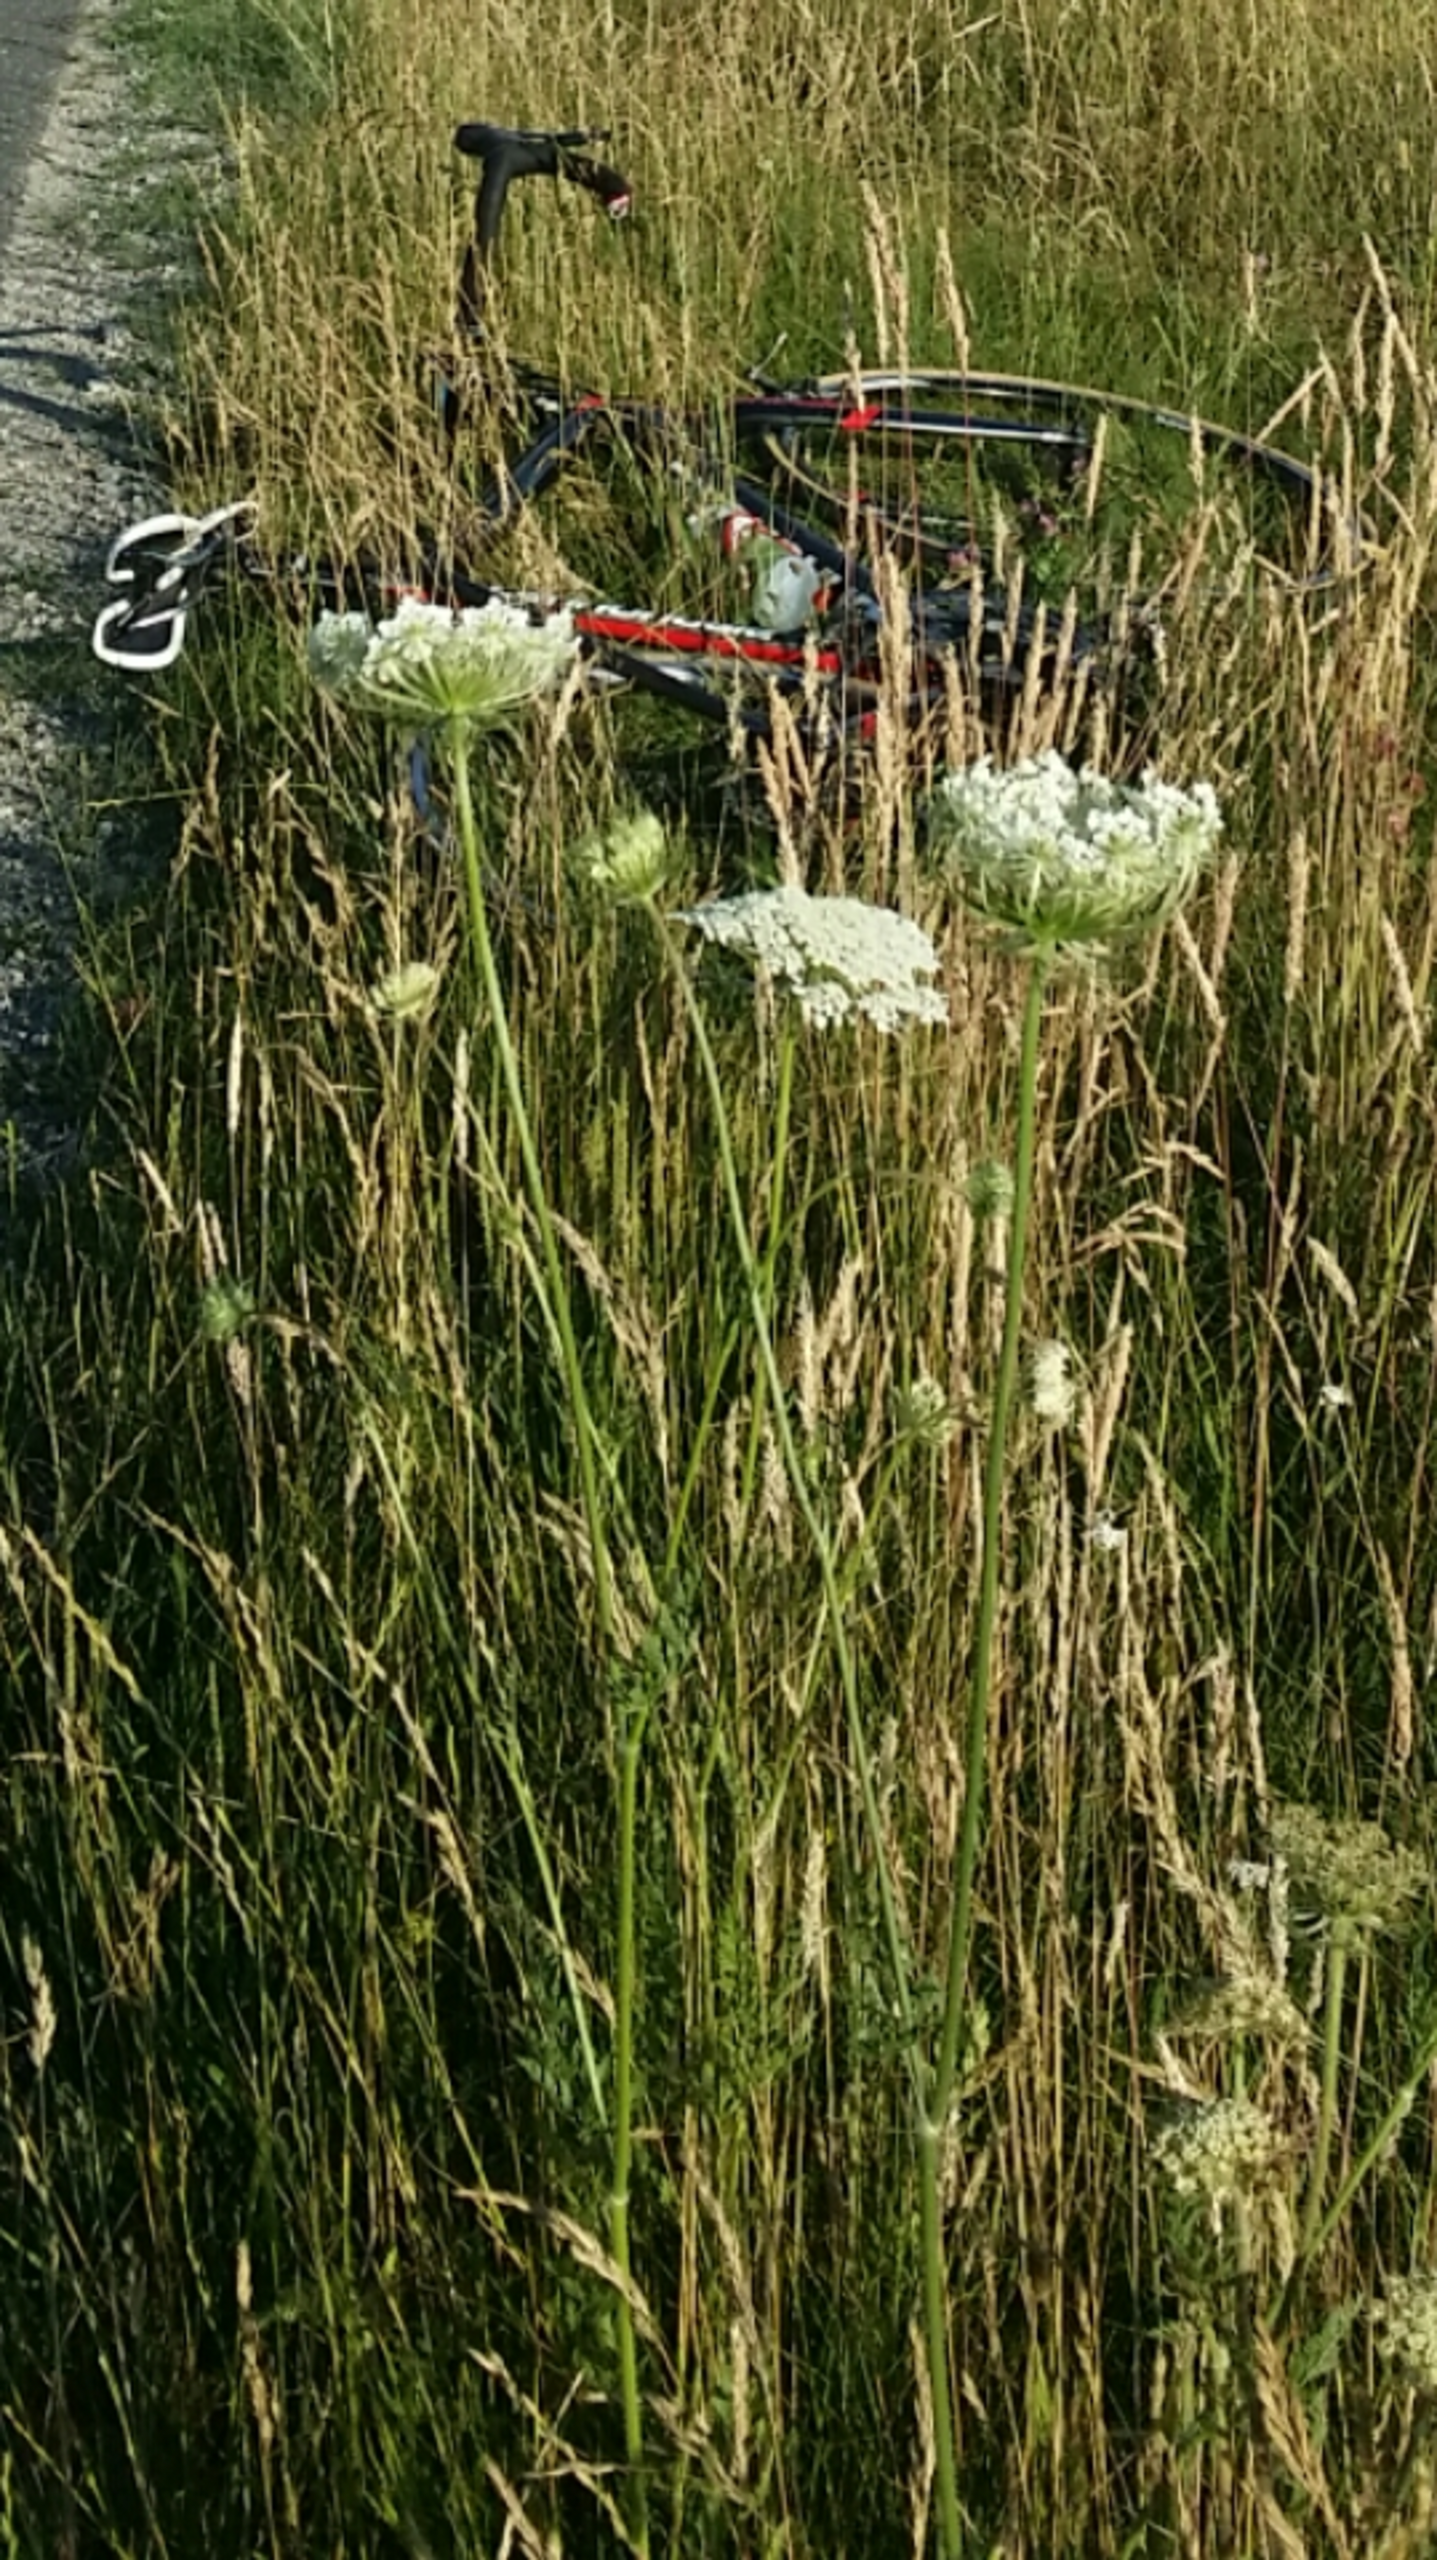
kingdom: Plantae
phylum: Tracheophyta
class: Magnoliopsida
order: Apiales
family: Apiaceae
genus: Daucus
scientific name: Daucus carota
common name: Vild gulerod
